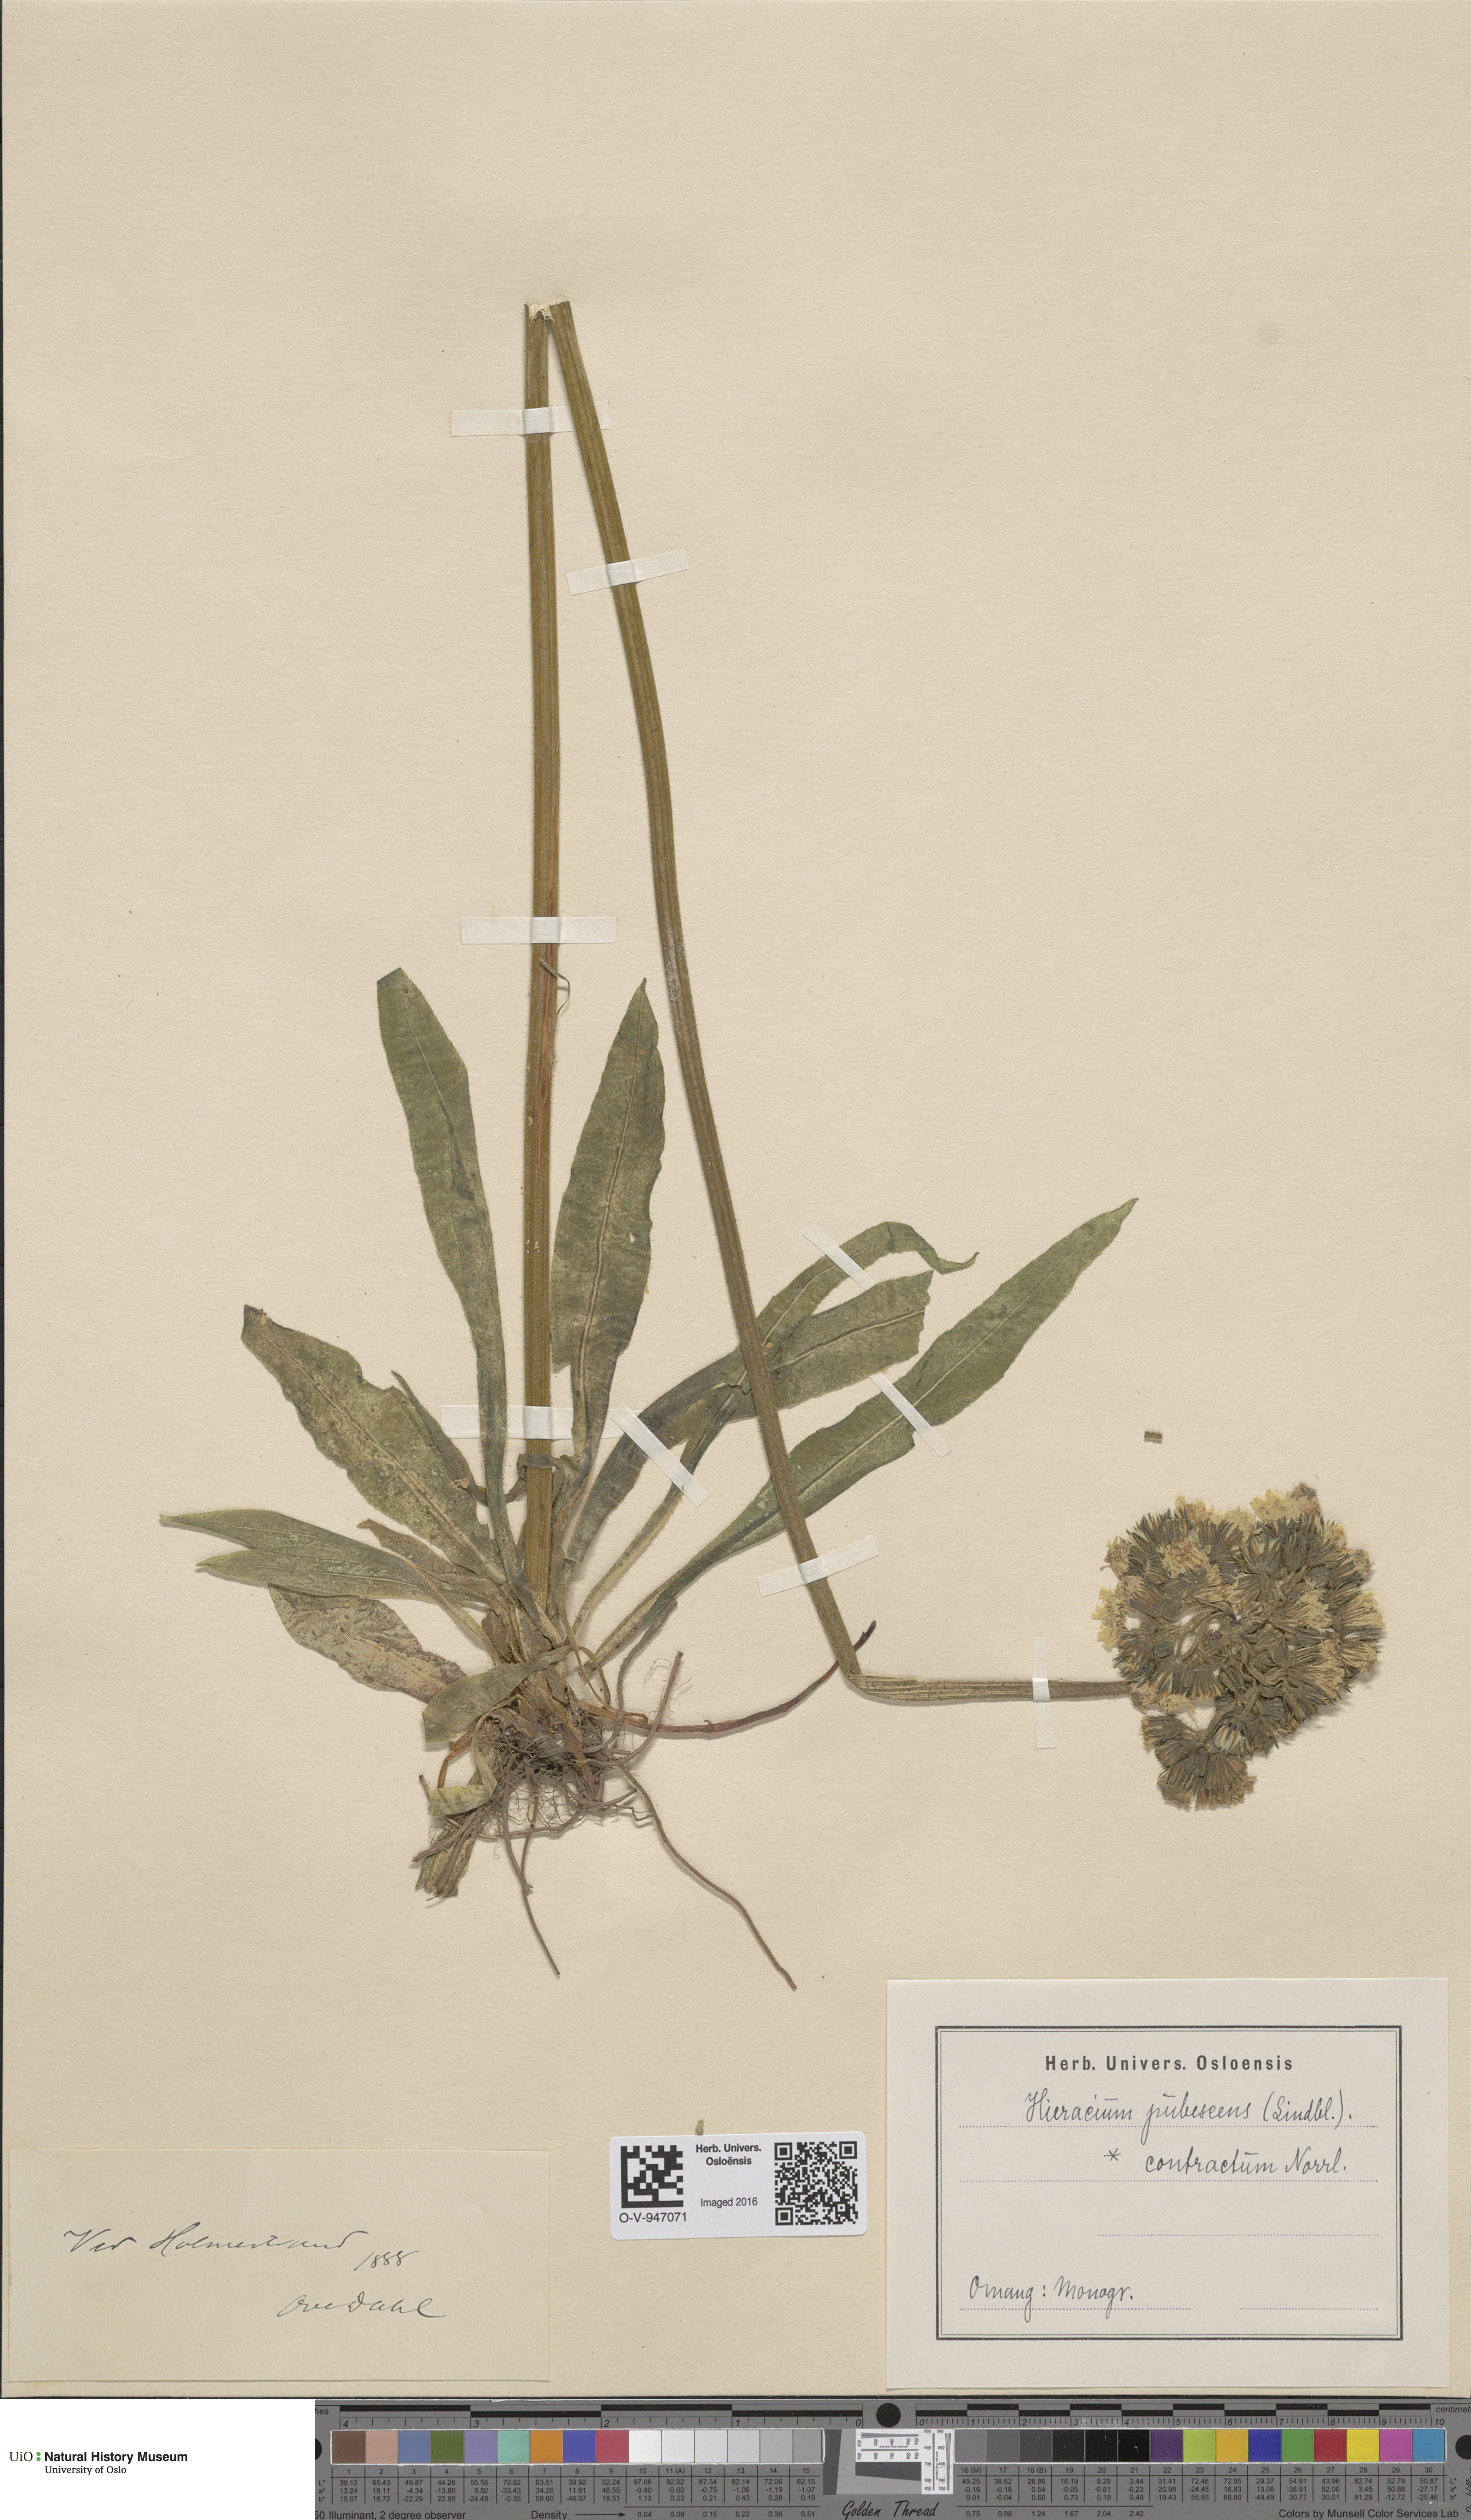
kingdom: Plantae
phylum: Tracheophyta
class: Magnoliopsida
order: Asterales
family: Asteraceae
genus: Pilosella
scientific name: Pilosella cymosa
